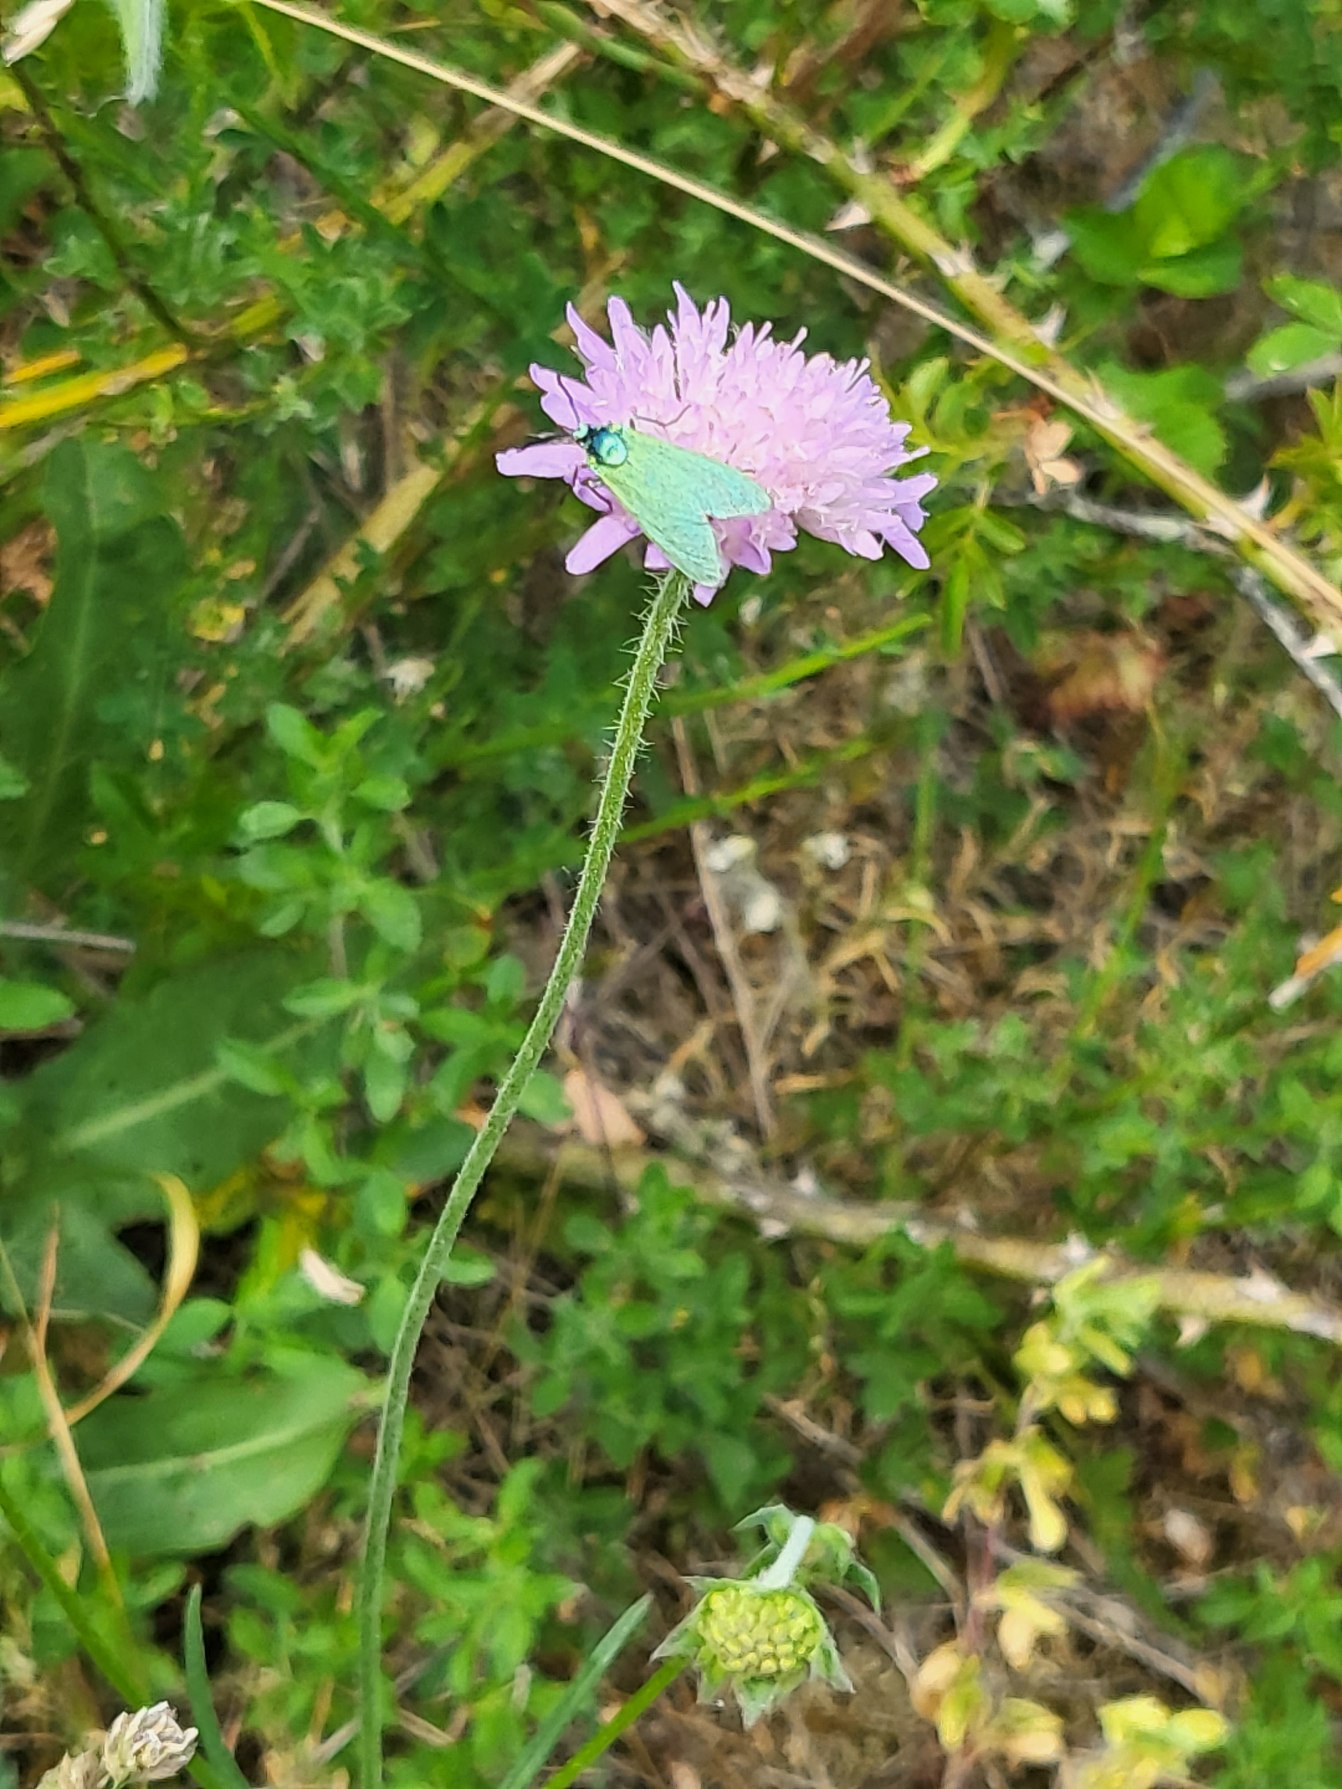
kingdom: Animalia
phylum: Arthropoda
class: Insecta
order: Lepidoptera
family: Zygaenidae
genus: Adscita
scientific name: Adscita statices
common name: Metalvinge
